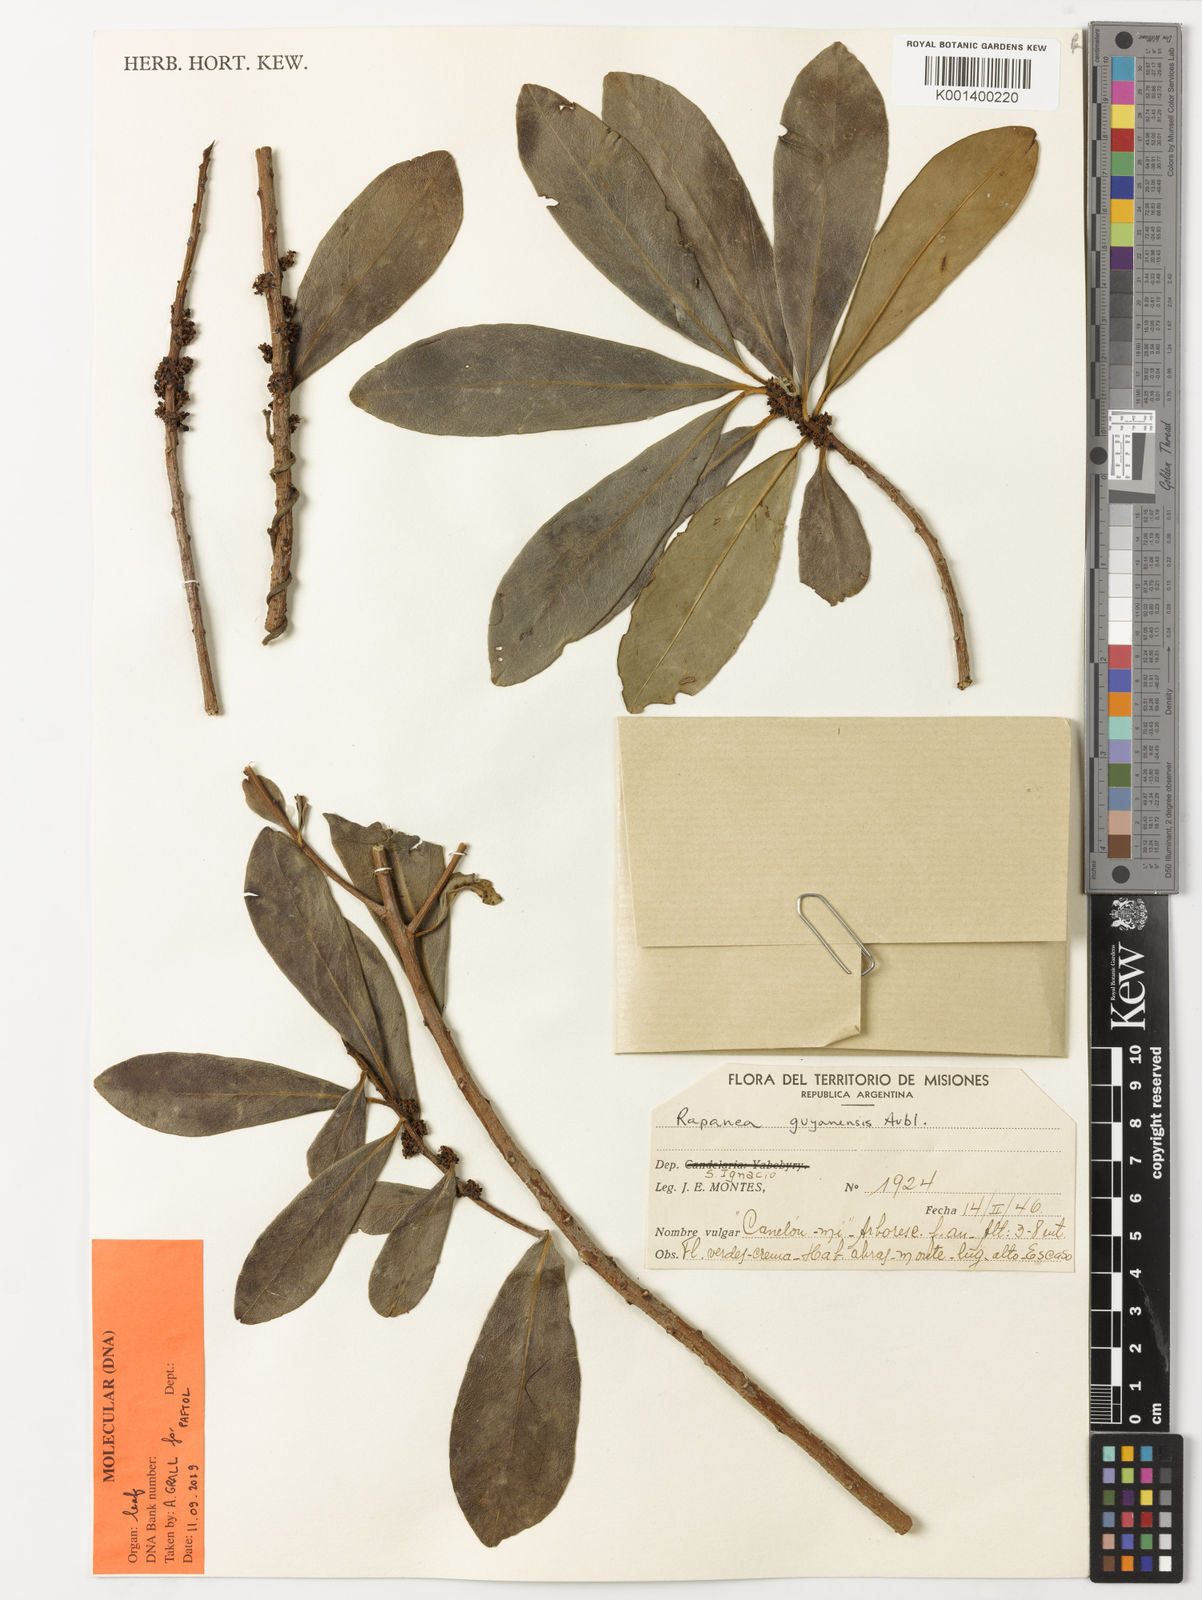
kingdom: Plantae
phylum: Tracheophyta
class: Magnoliopsida
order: Ericales
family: Primulaceae
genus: Myrsine
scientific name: Myrsine guianensis
